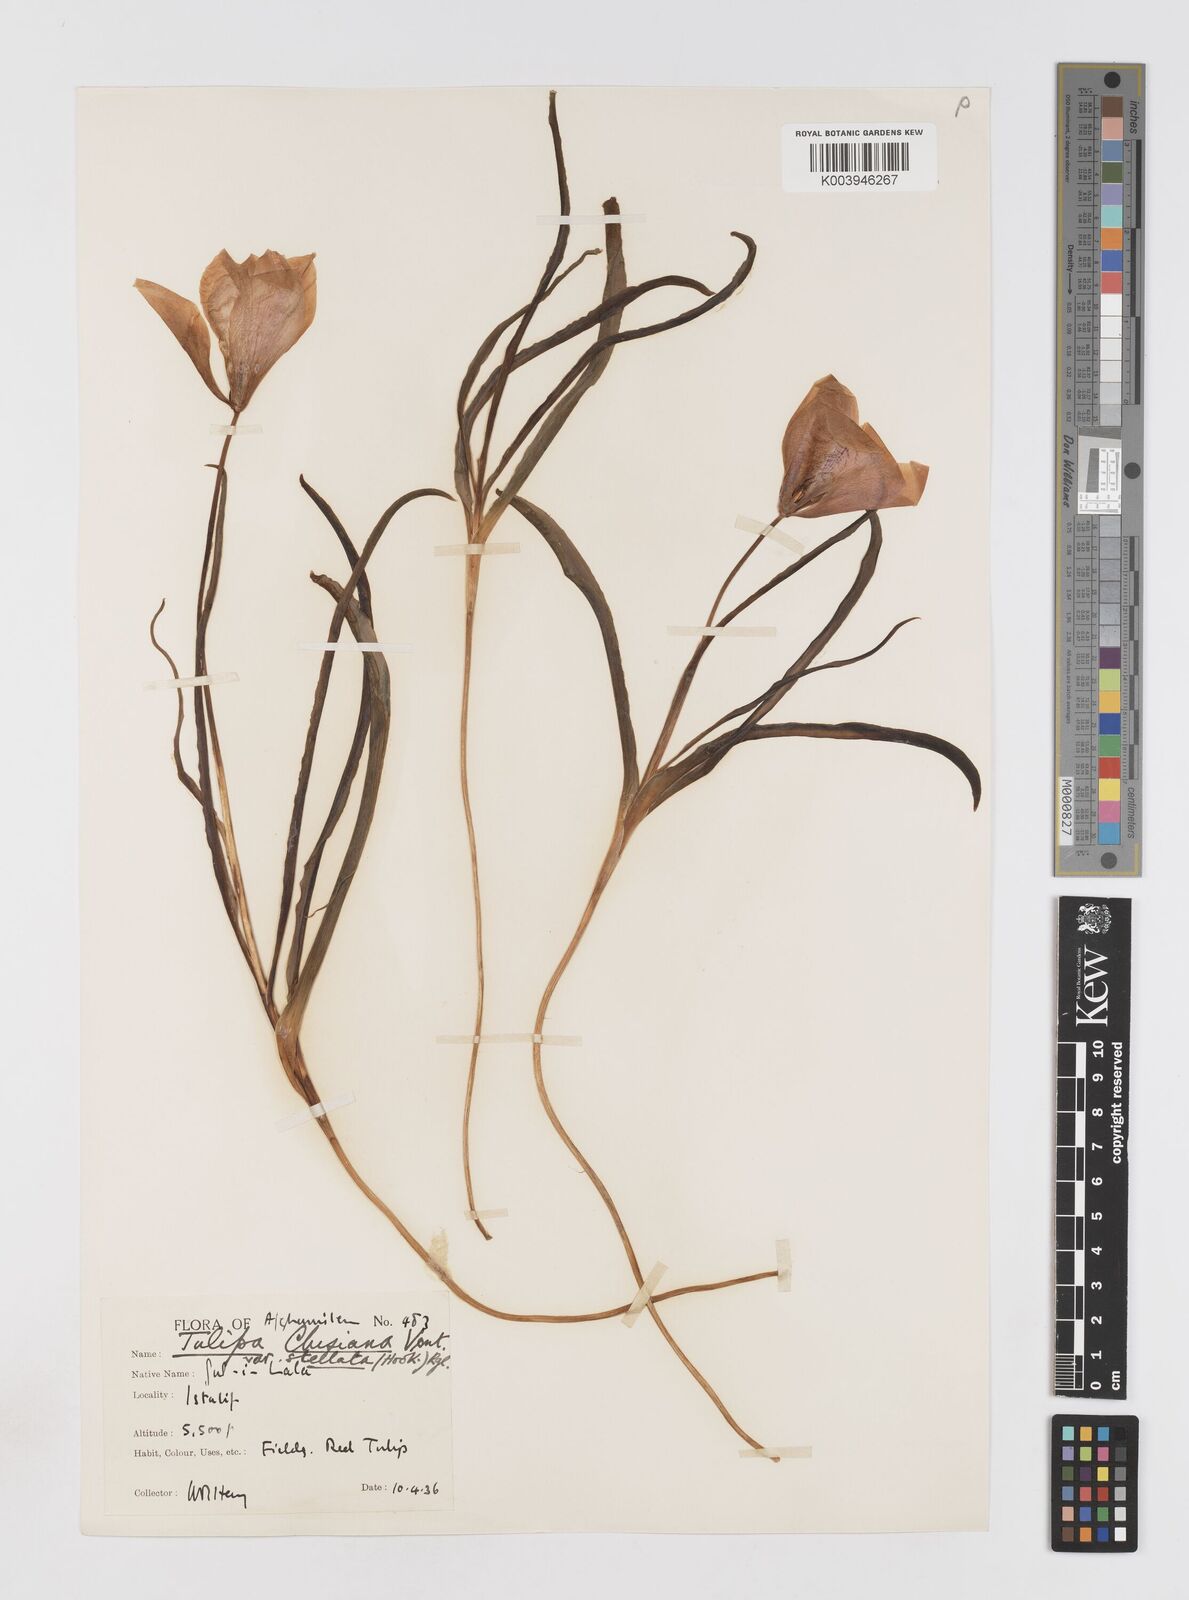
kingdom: Plantae
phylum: Tracheophyta
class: Liliopsida
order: Liliales
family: Liliaceae
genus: Tulipa
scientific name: Tulipa clusiana
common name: Lady tulip
